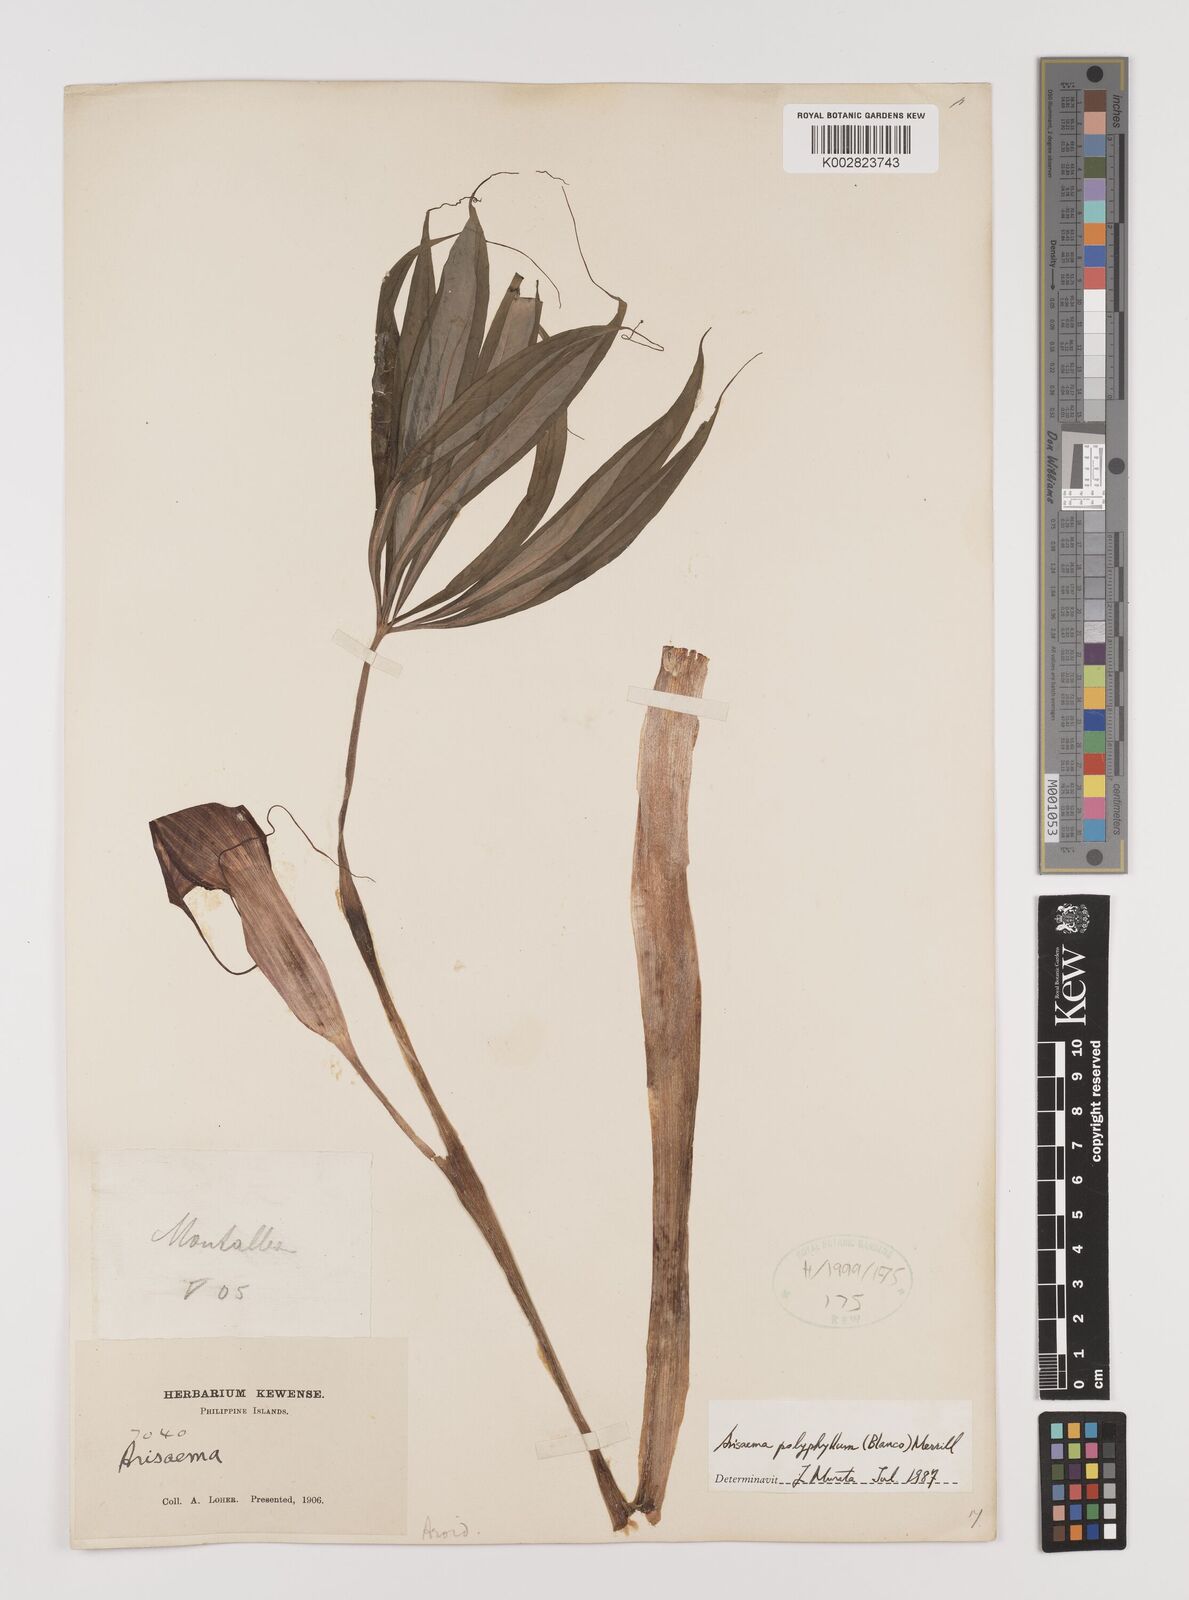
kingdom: Plantae
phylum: Tracheophyta
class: Liliopsida
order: Alismatales
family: Araceae
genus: Arisaema
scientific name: Arisaema polyphyllum
